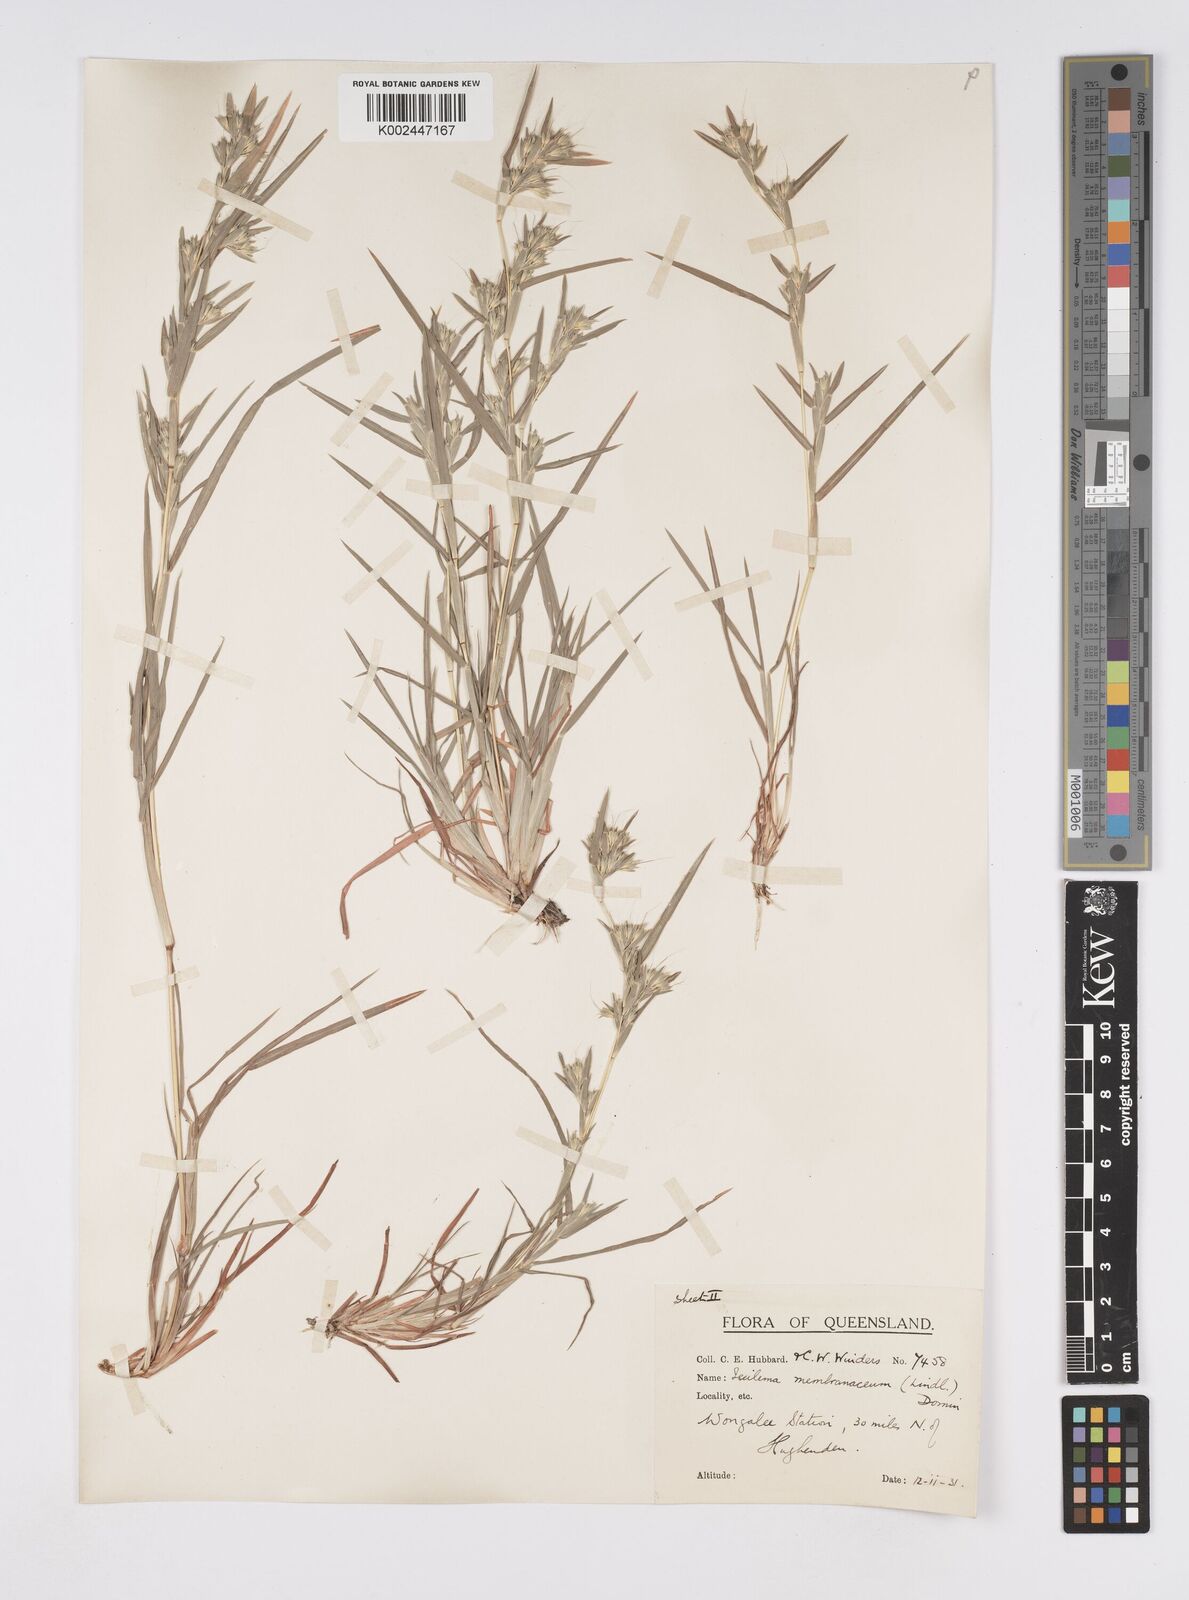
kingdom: Plantae
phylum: Tracheophyta
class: Liliopsida
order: Poales
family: Poaceae
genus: Iseilema
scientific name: Iseilema membranaceum
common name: Small flinders grass
